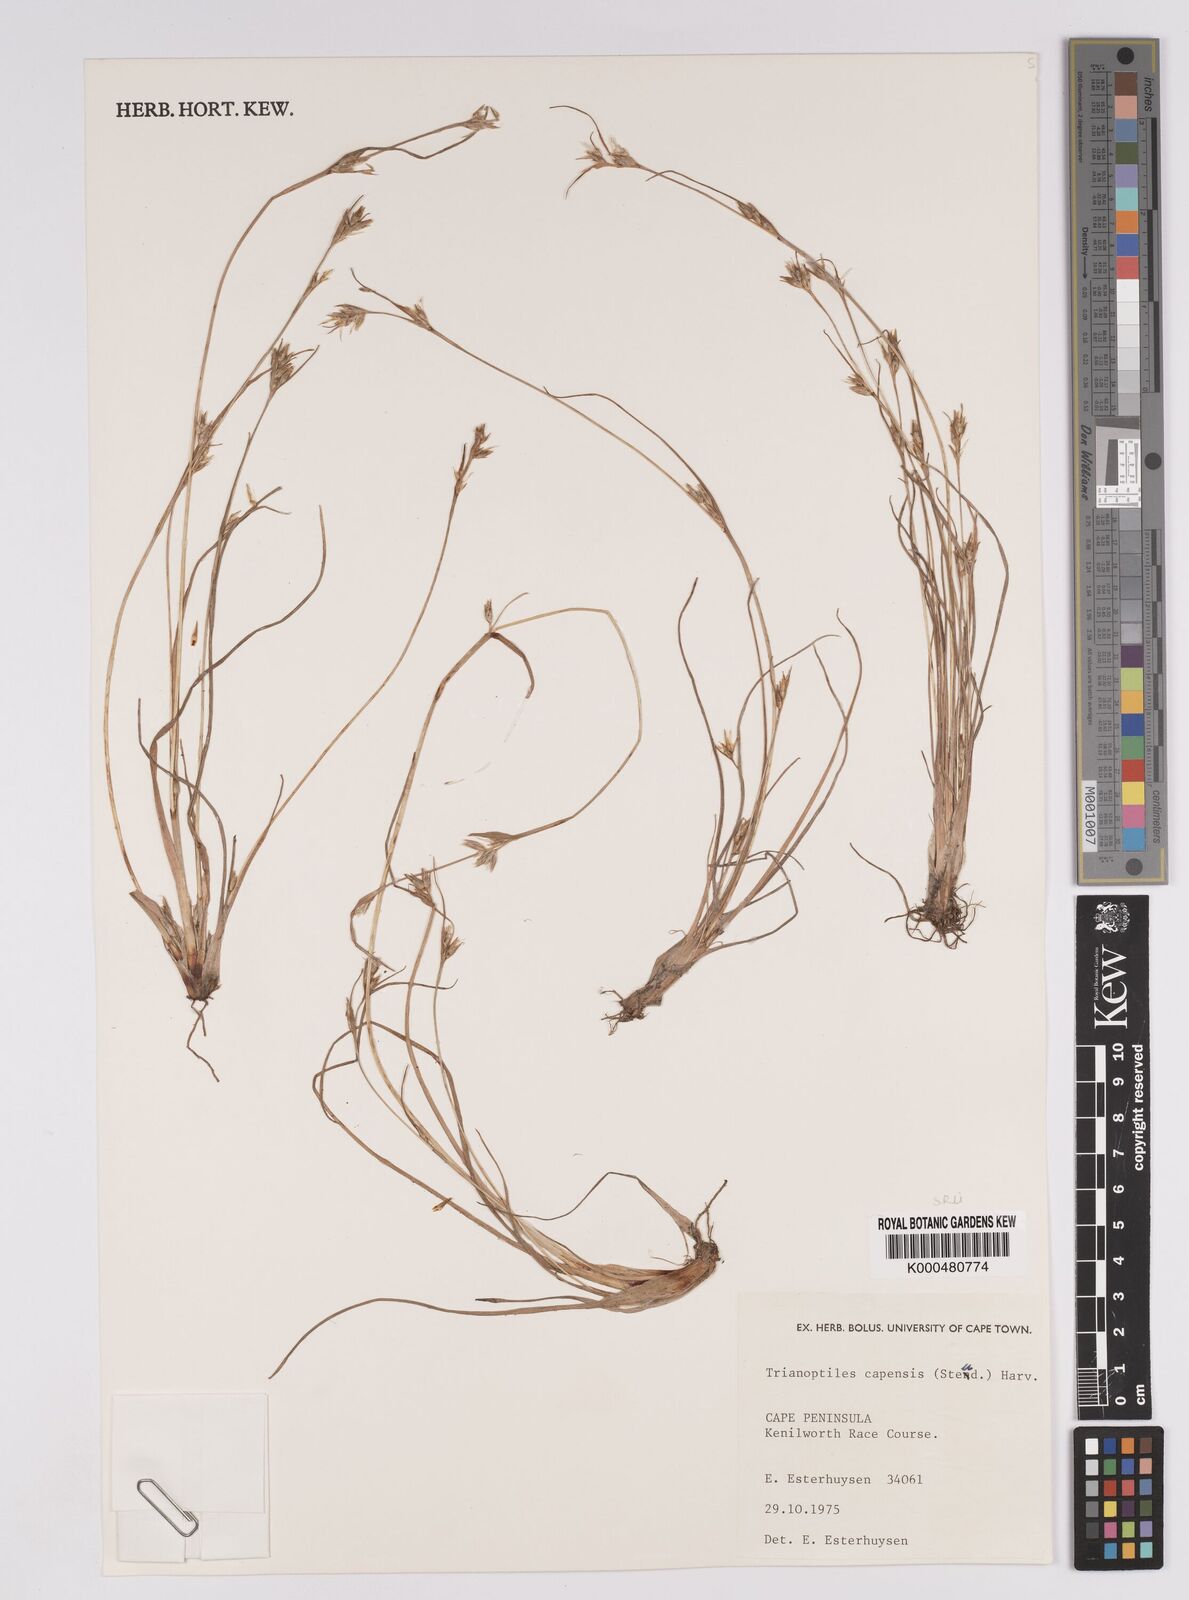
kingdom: Plantae
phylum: Tracheophyta
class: Liliopsida
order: Poales
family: Cyperaceae
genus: Trianoptiles
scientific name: Trianoptiles capensis
